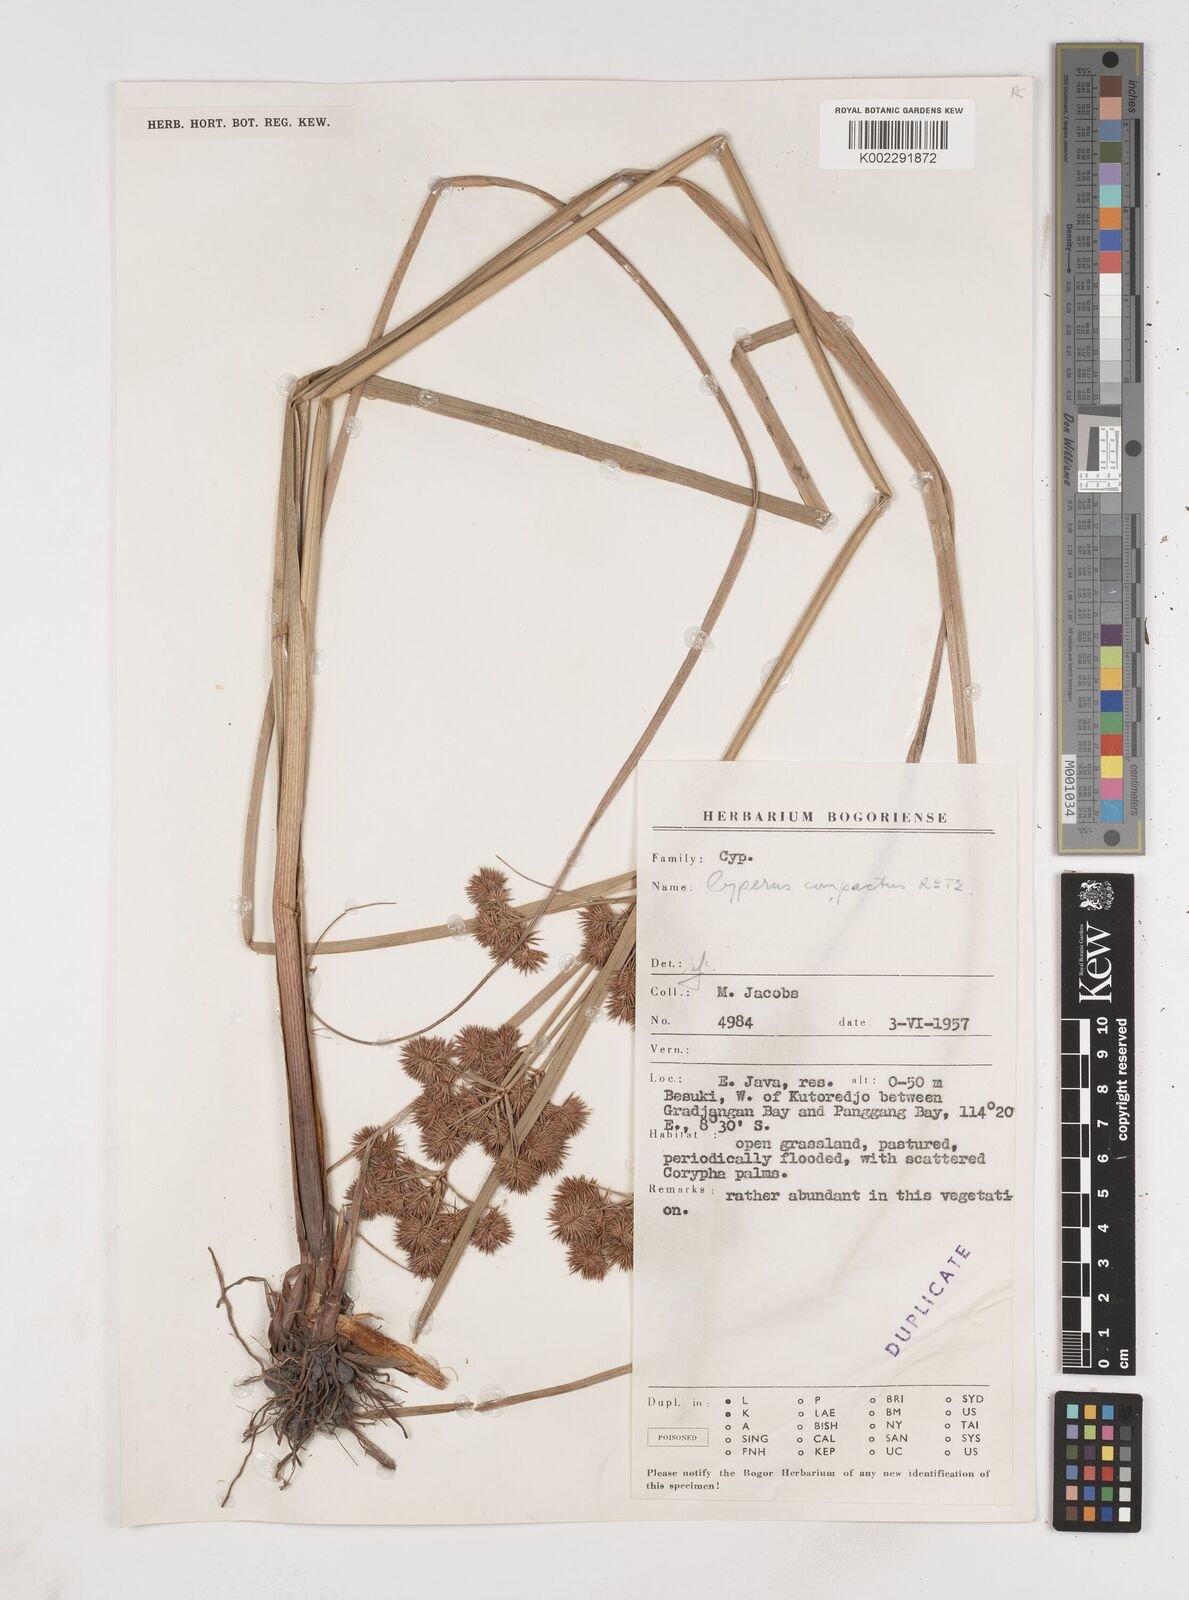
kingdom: Plantae
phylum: Tracheophyta
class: Liliopsida
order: Poales
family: Cyperaceae
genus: Cyperus
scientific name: Cyperus compactus
